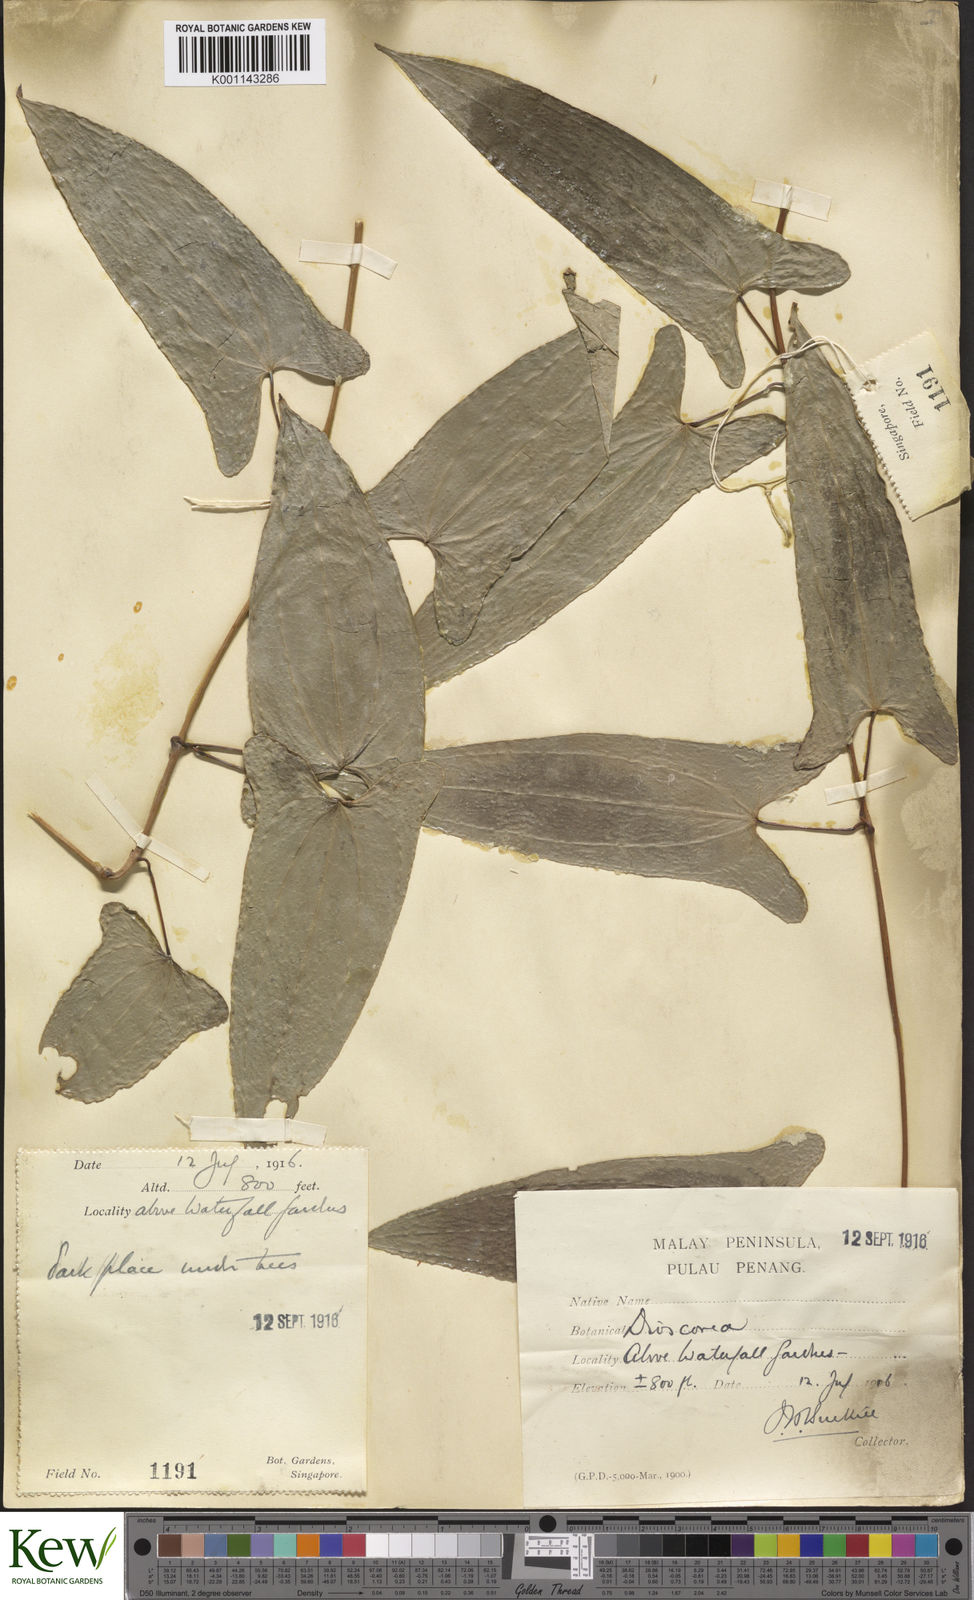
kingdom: Plantae
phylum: Tracheophyta
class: Liliopsida
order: Dioscoreales
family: Dioscoreaceae
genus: Dioscorea
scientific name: Dioscorea glabra
